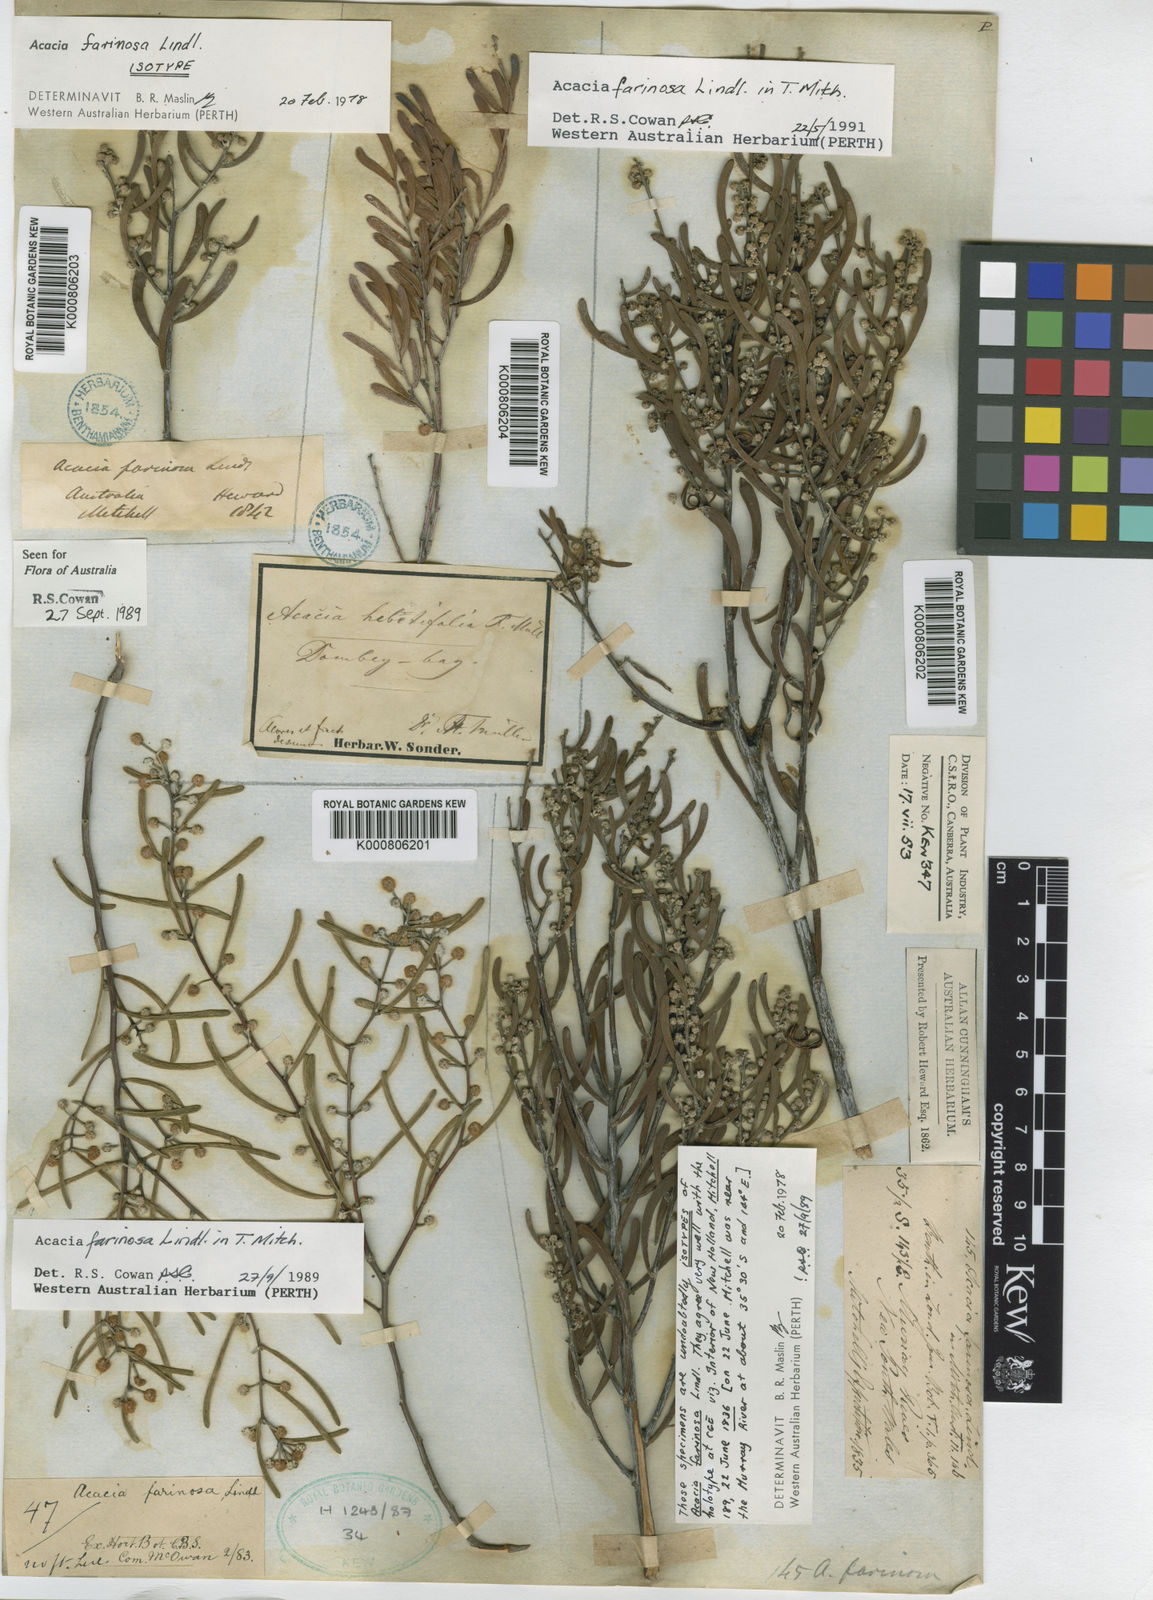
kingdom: Plantae
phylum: Tracheophyta
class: Magnoliopsida
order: Fabales
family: Fabaceae
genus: Acacia
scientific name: Acacia farinosa
